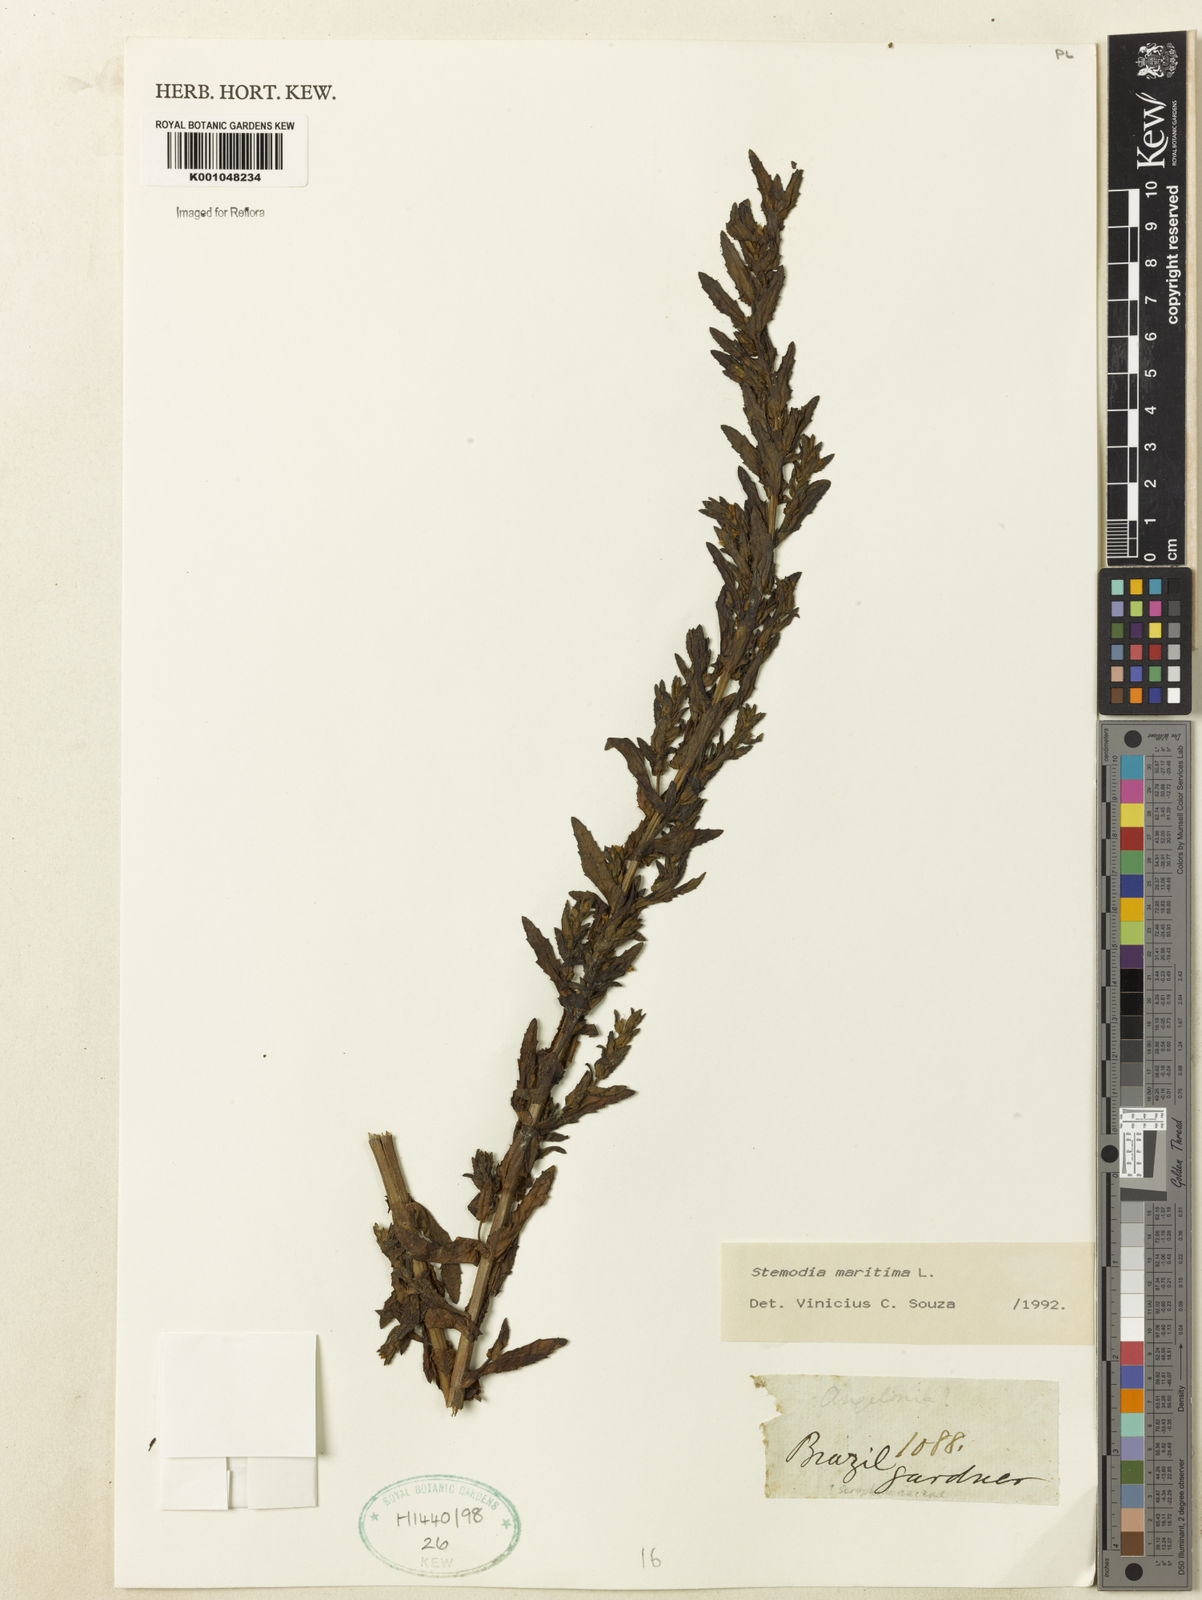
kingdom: Plantae
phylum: Tracheophyta
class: Magnoliopsida
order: Lamiales
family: Plantaginaceae
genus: Stemodia
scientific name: Stemodia maritima
